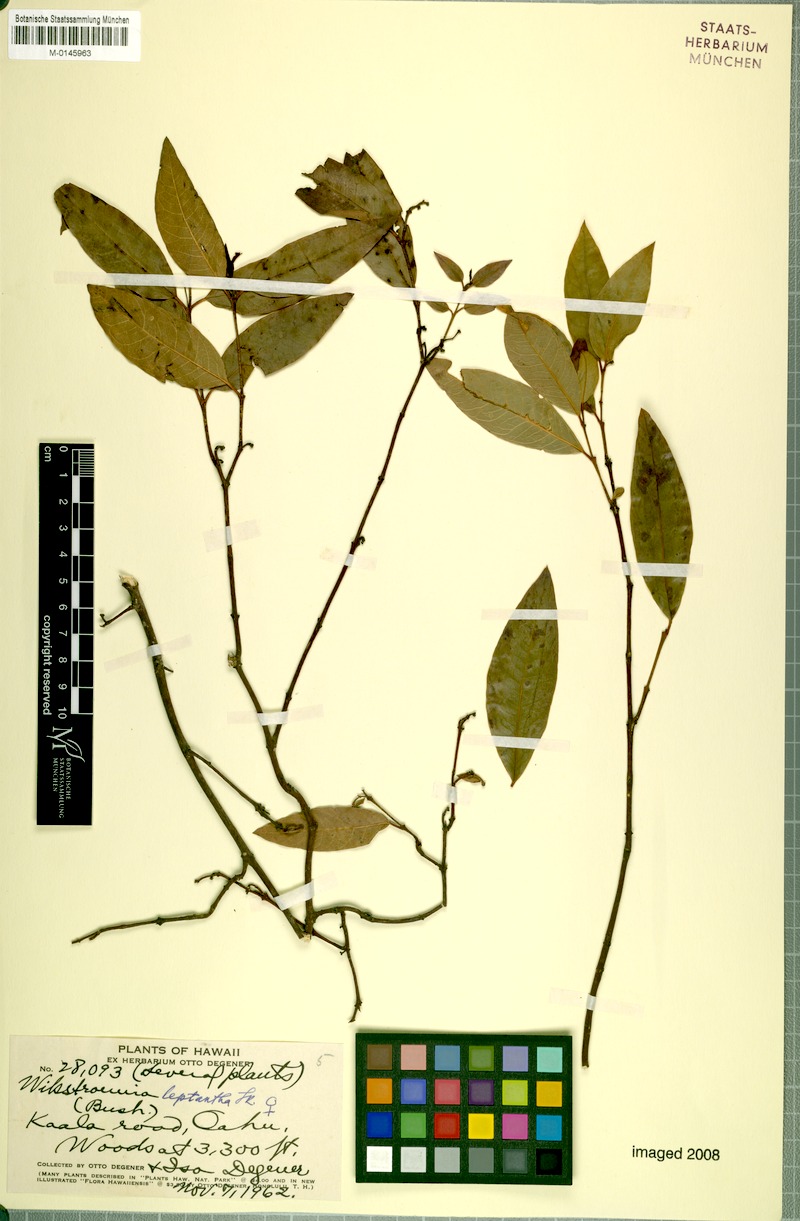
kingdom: Plantae
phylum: Tracheophyta
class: Magnoliopsida
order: Malvales
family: Thymelaeaceae
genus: Wikstroemia
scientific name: Wikstroemia oahuensis
